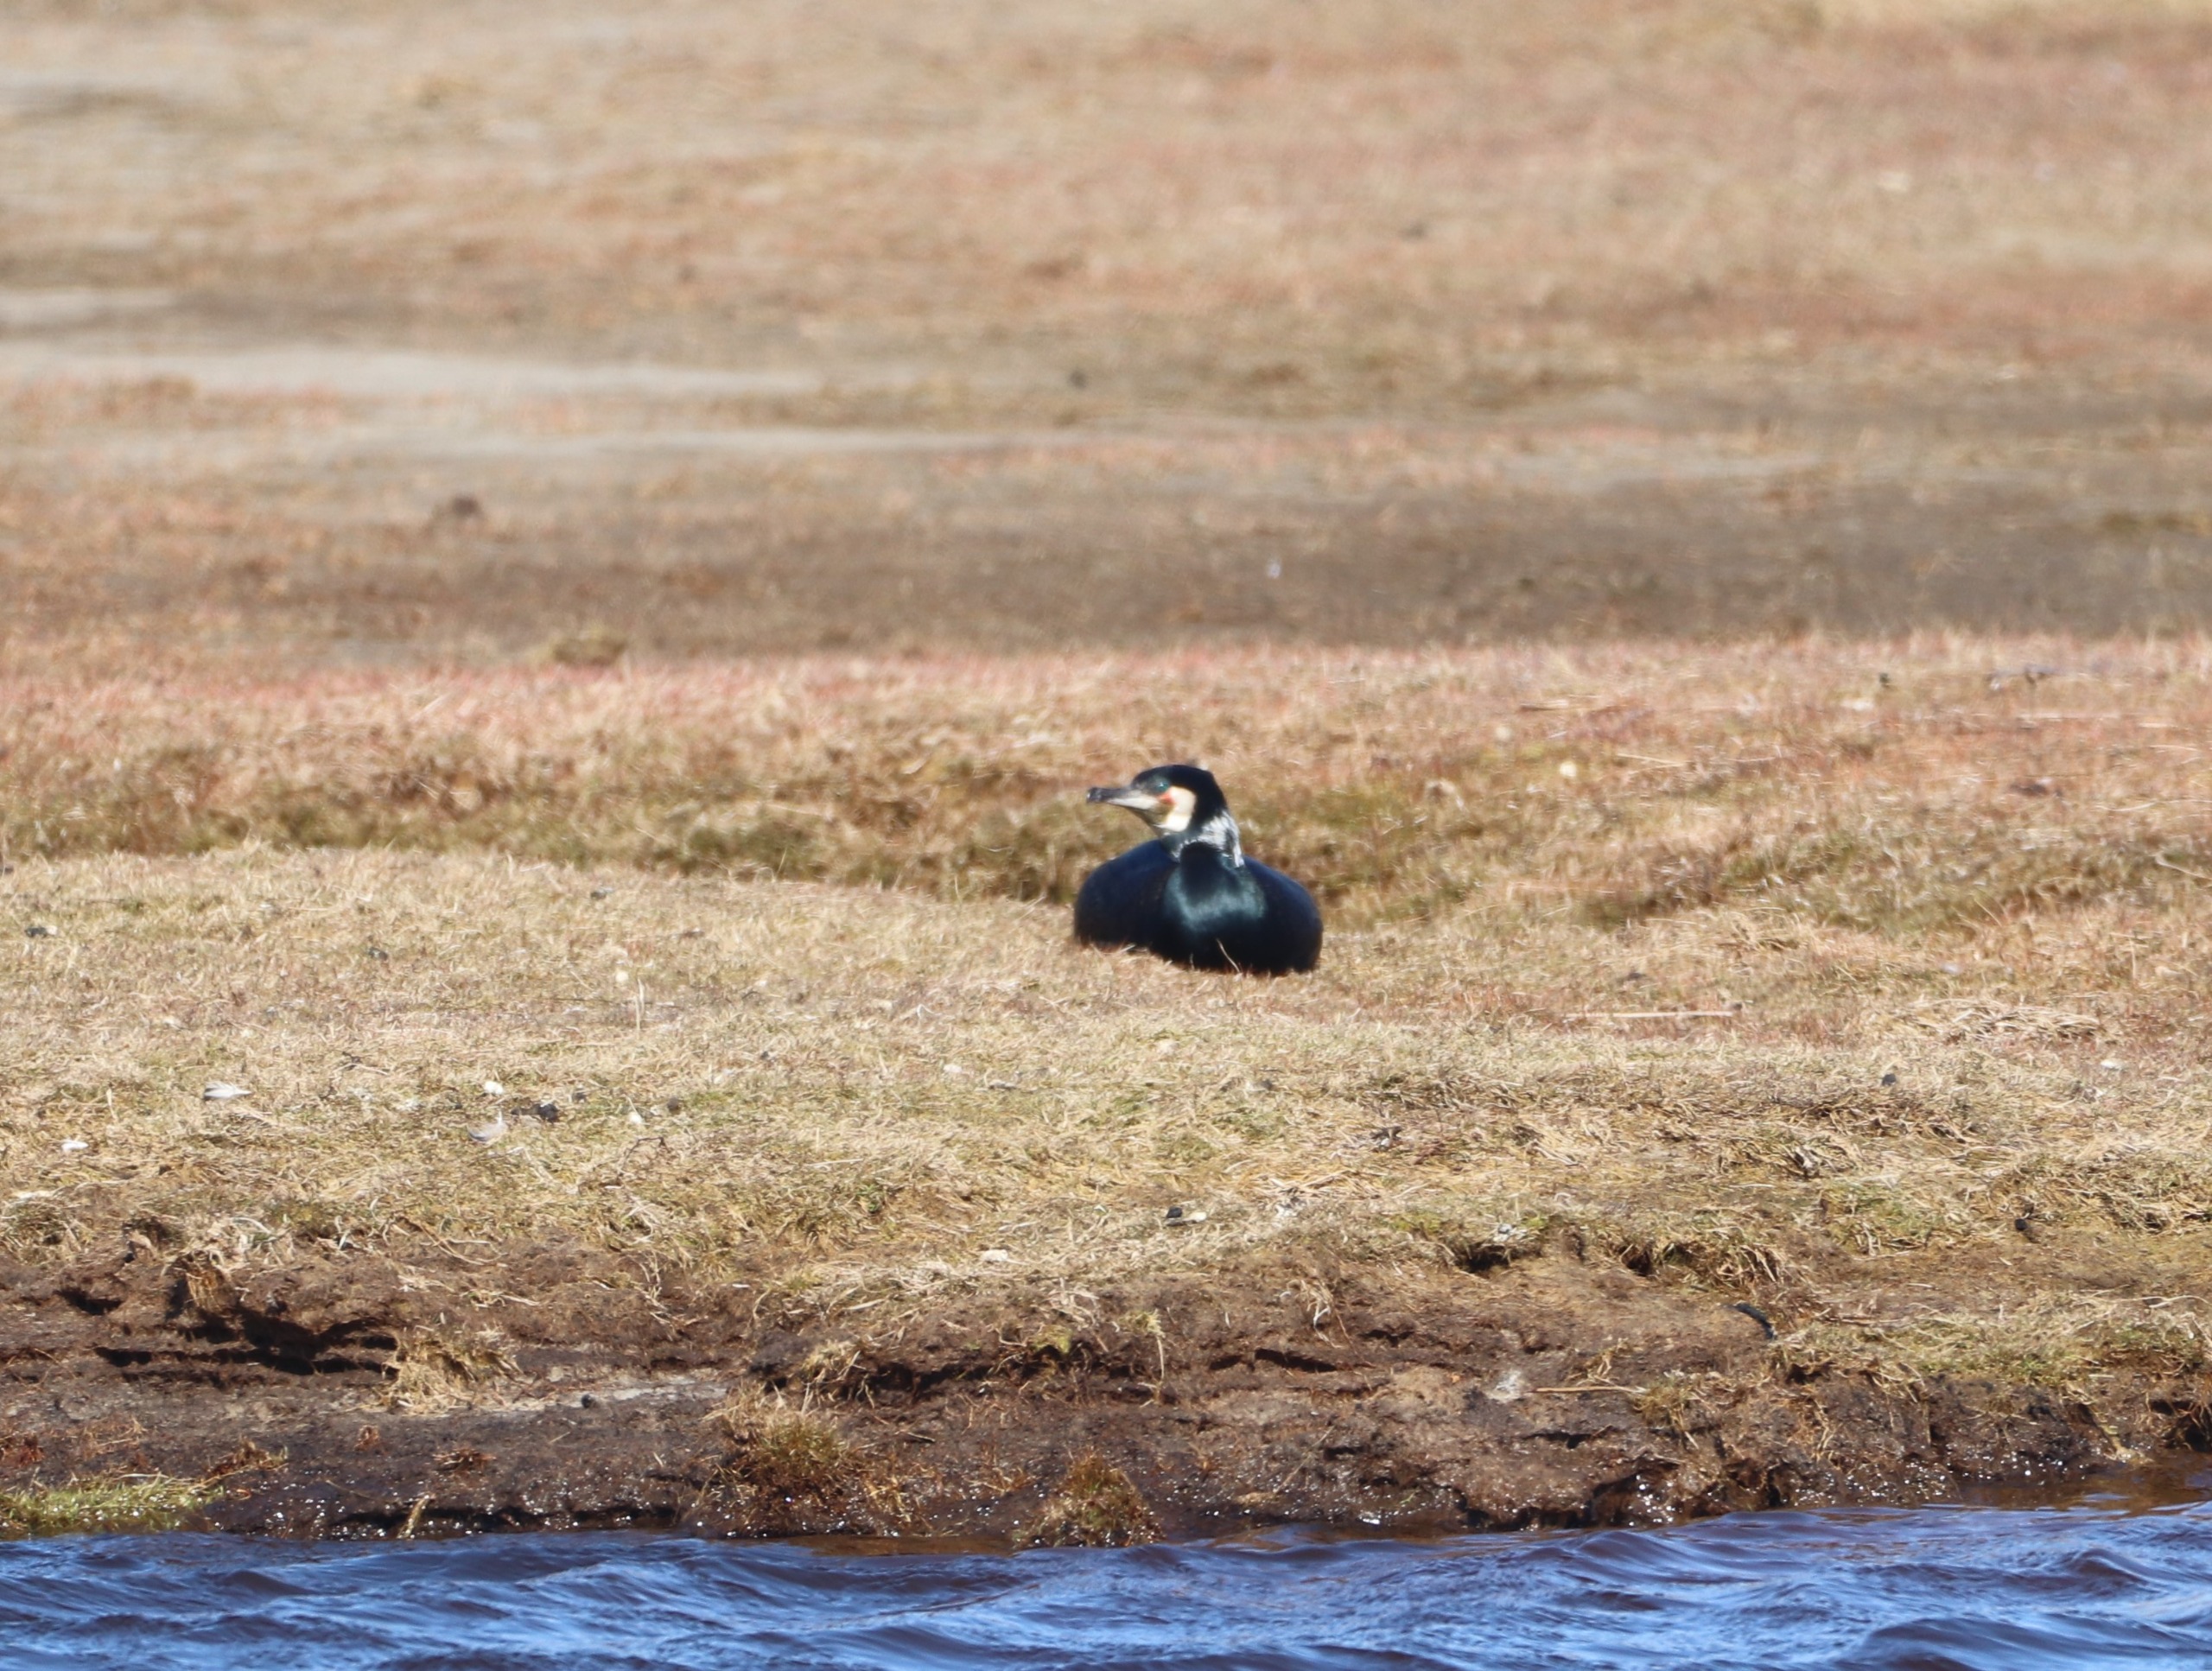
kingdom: Animalia
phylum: Chordata
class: Aves
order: Suliformes
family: Phalacrocoracidae
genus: Phalacrocorax
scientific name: Phalacrocorax carbo
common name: Skarv
